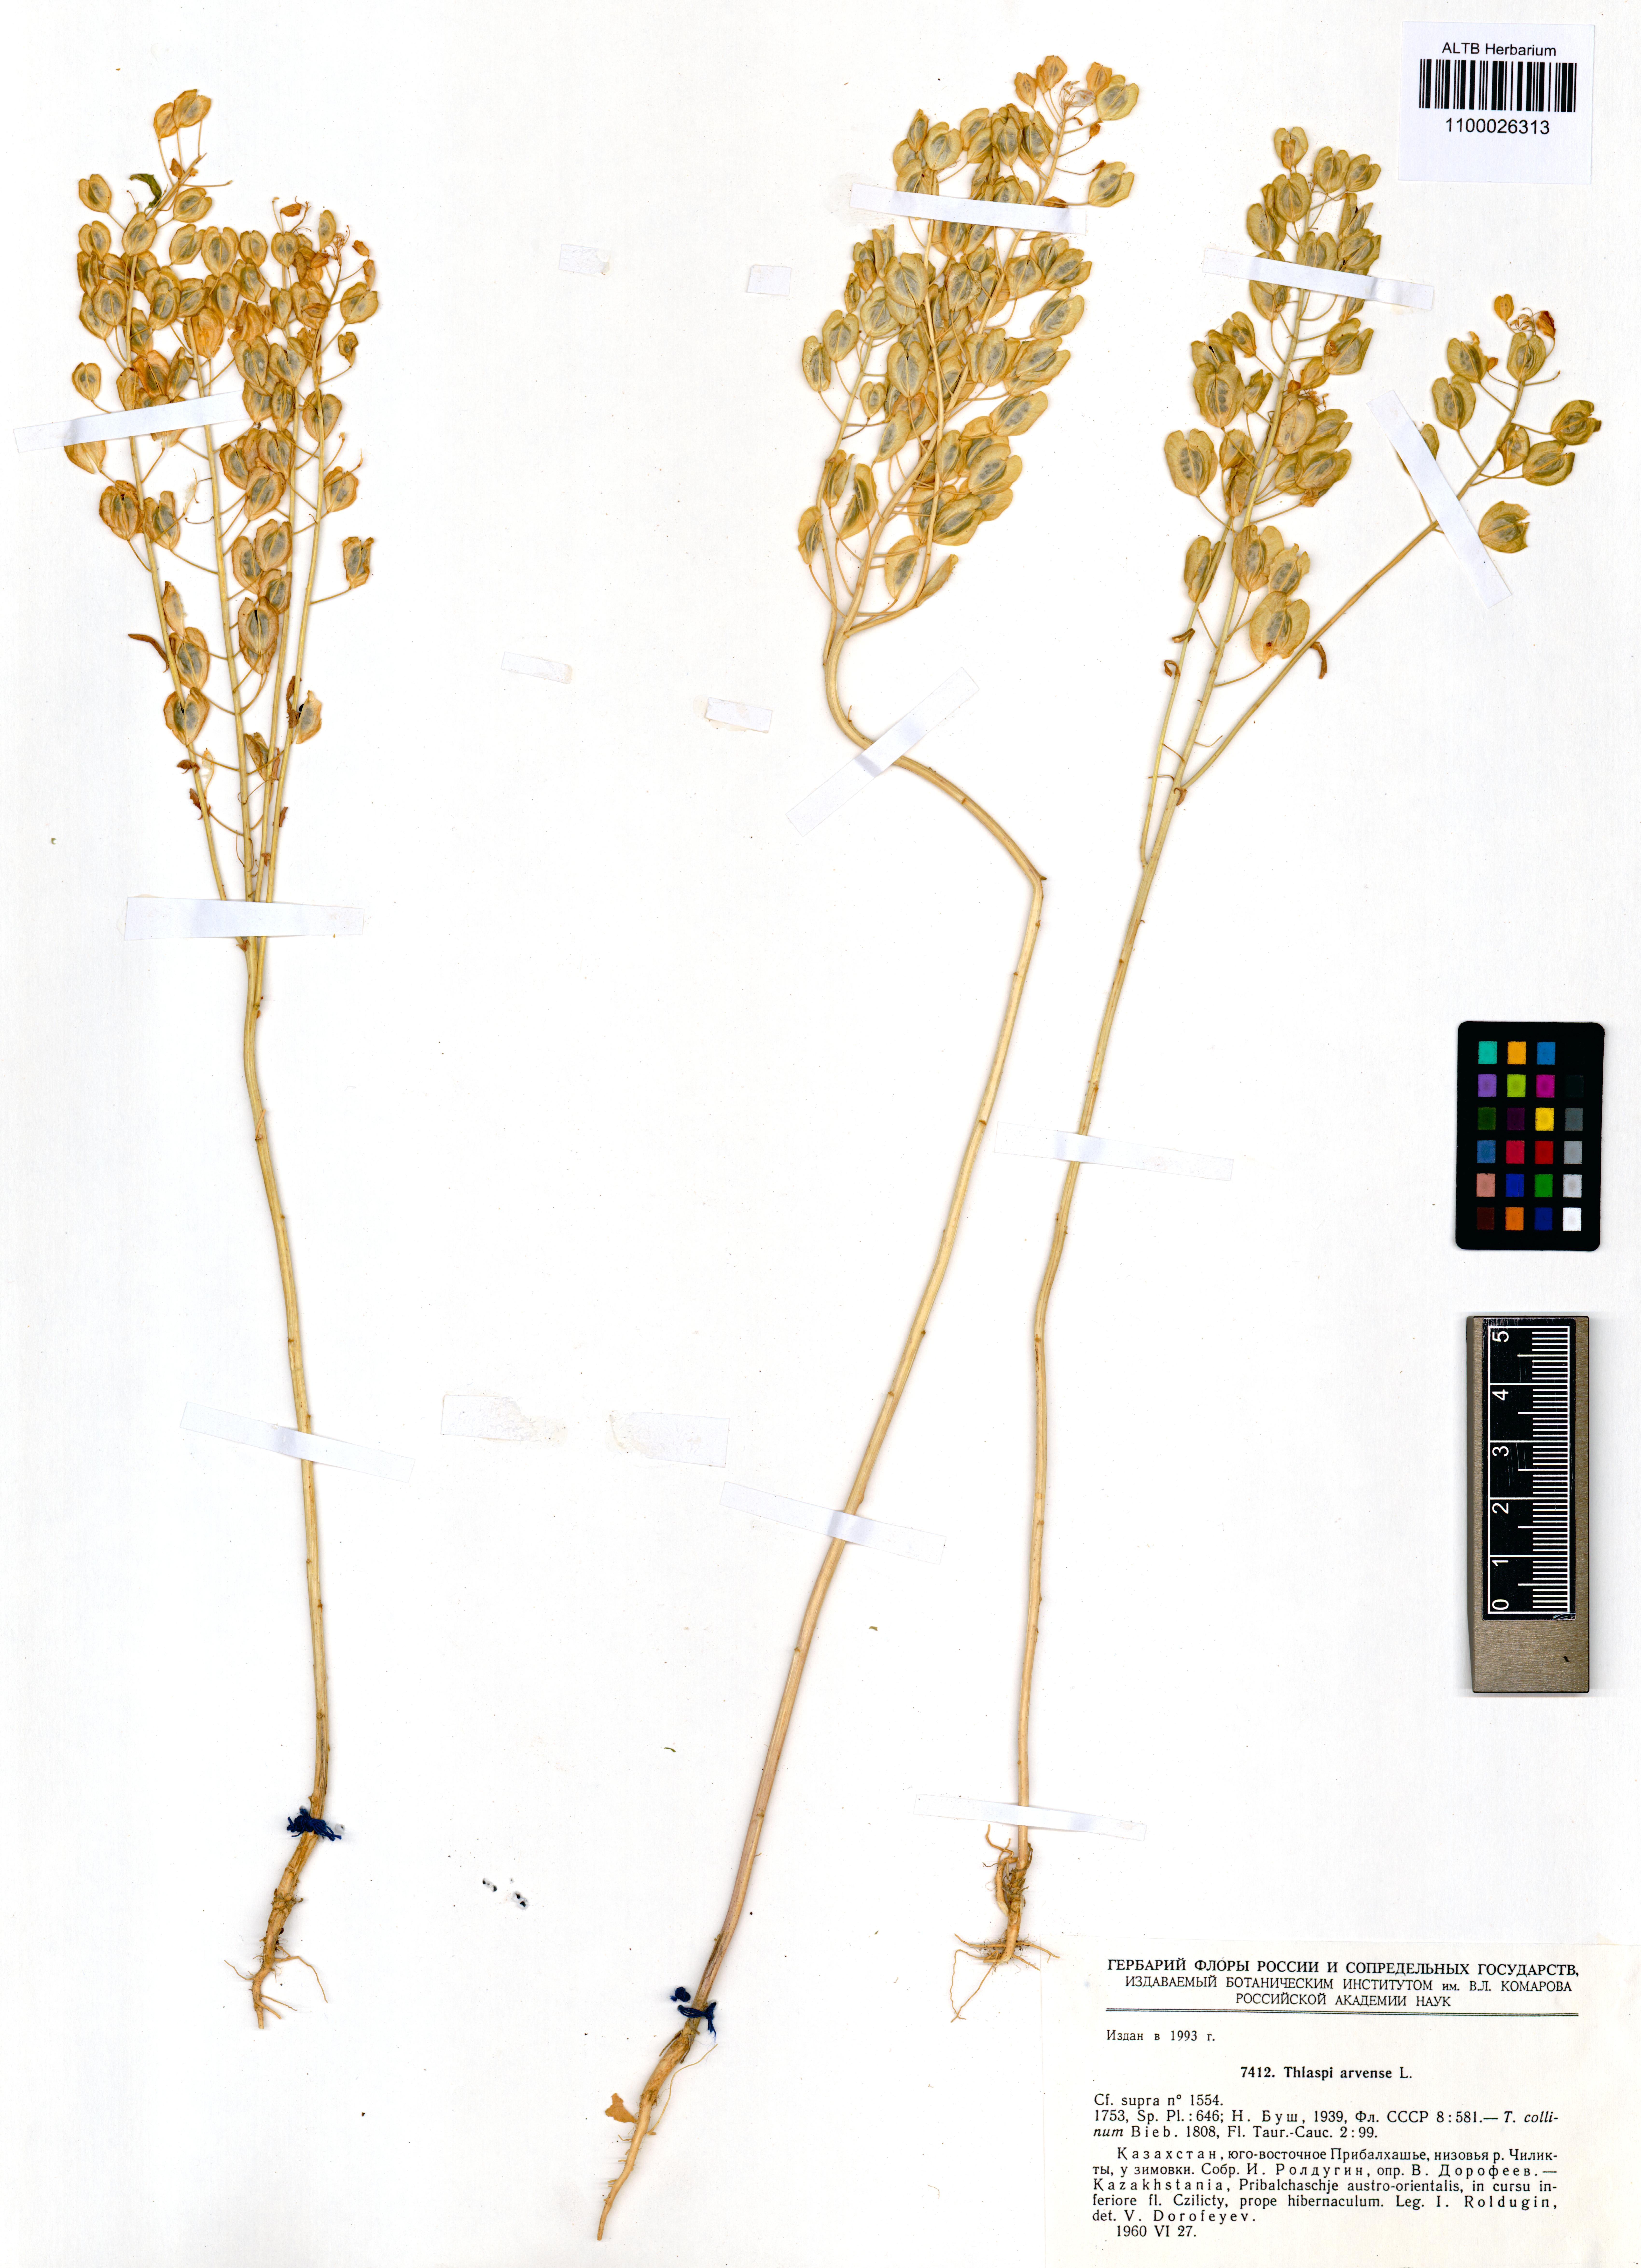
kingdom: Plantae
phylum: Tracheophyta
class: Magnoliopsida
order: Brassicales
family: Brassicaceae
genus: Thlaspi
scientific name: Thlaspi arvense
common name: Field pennycress
